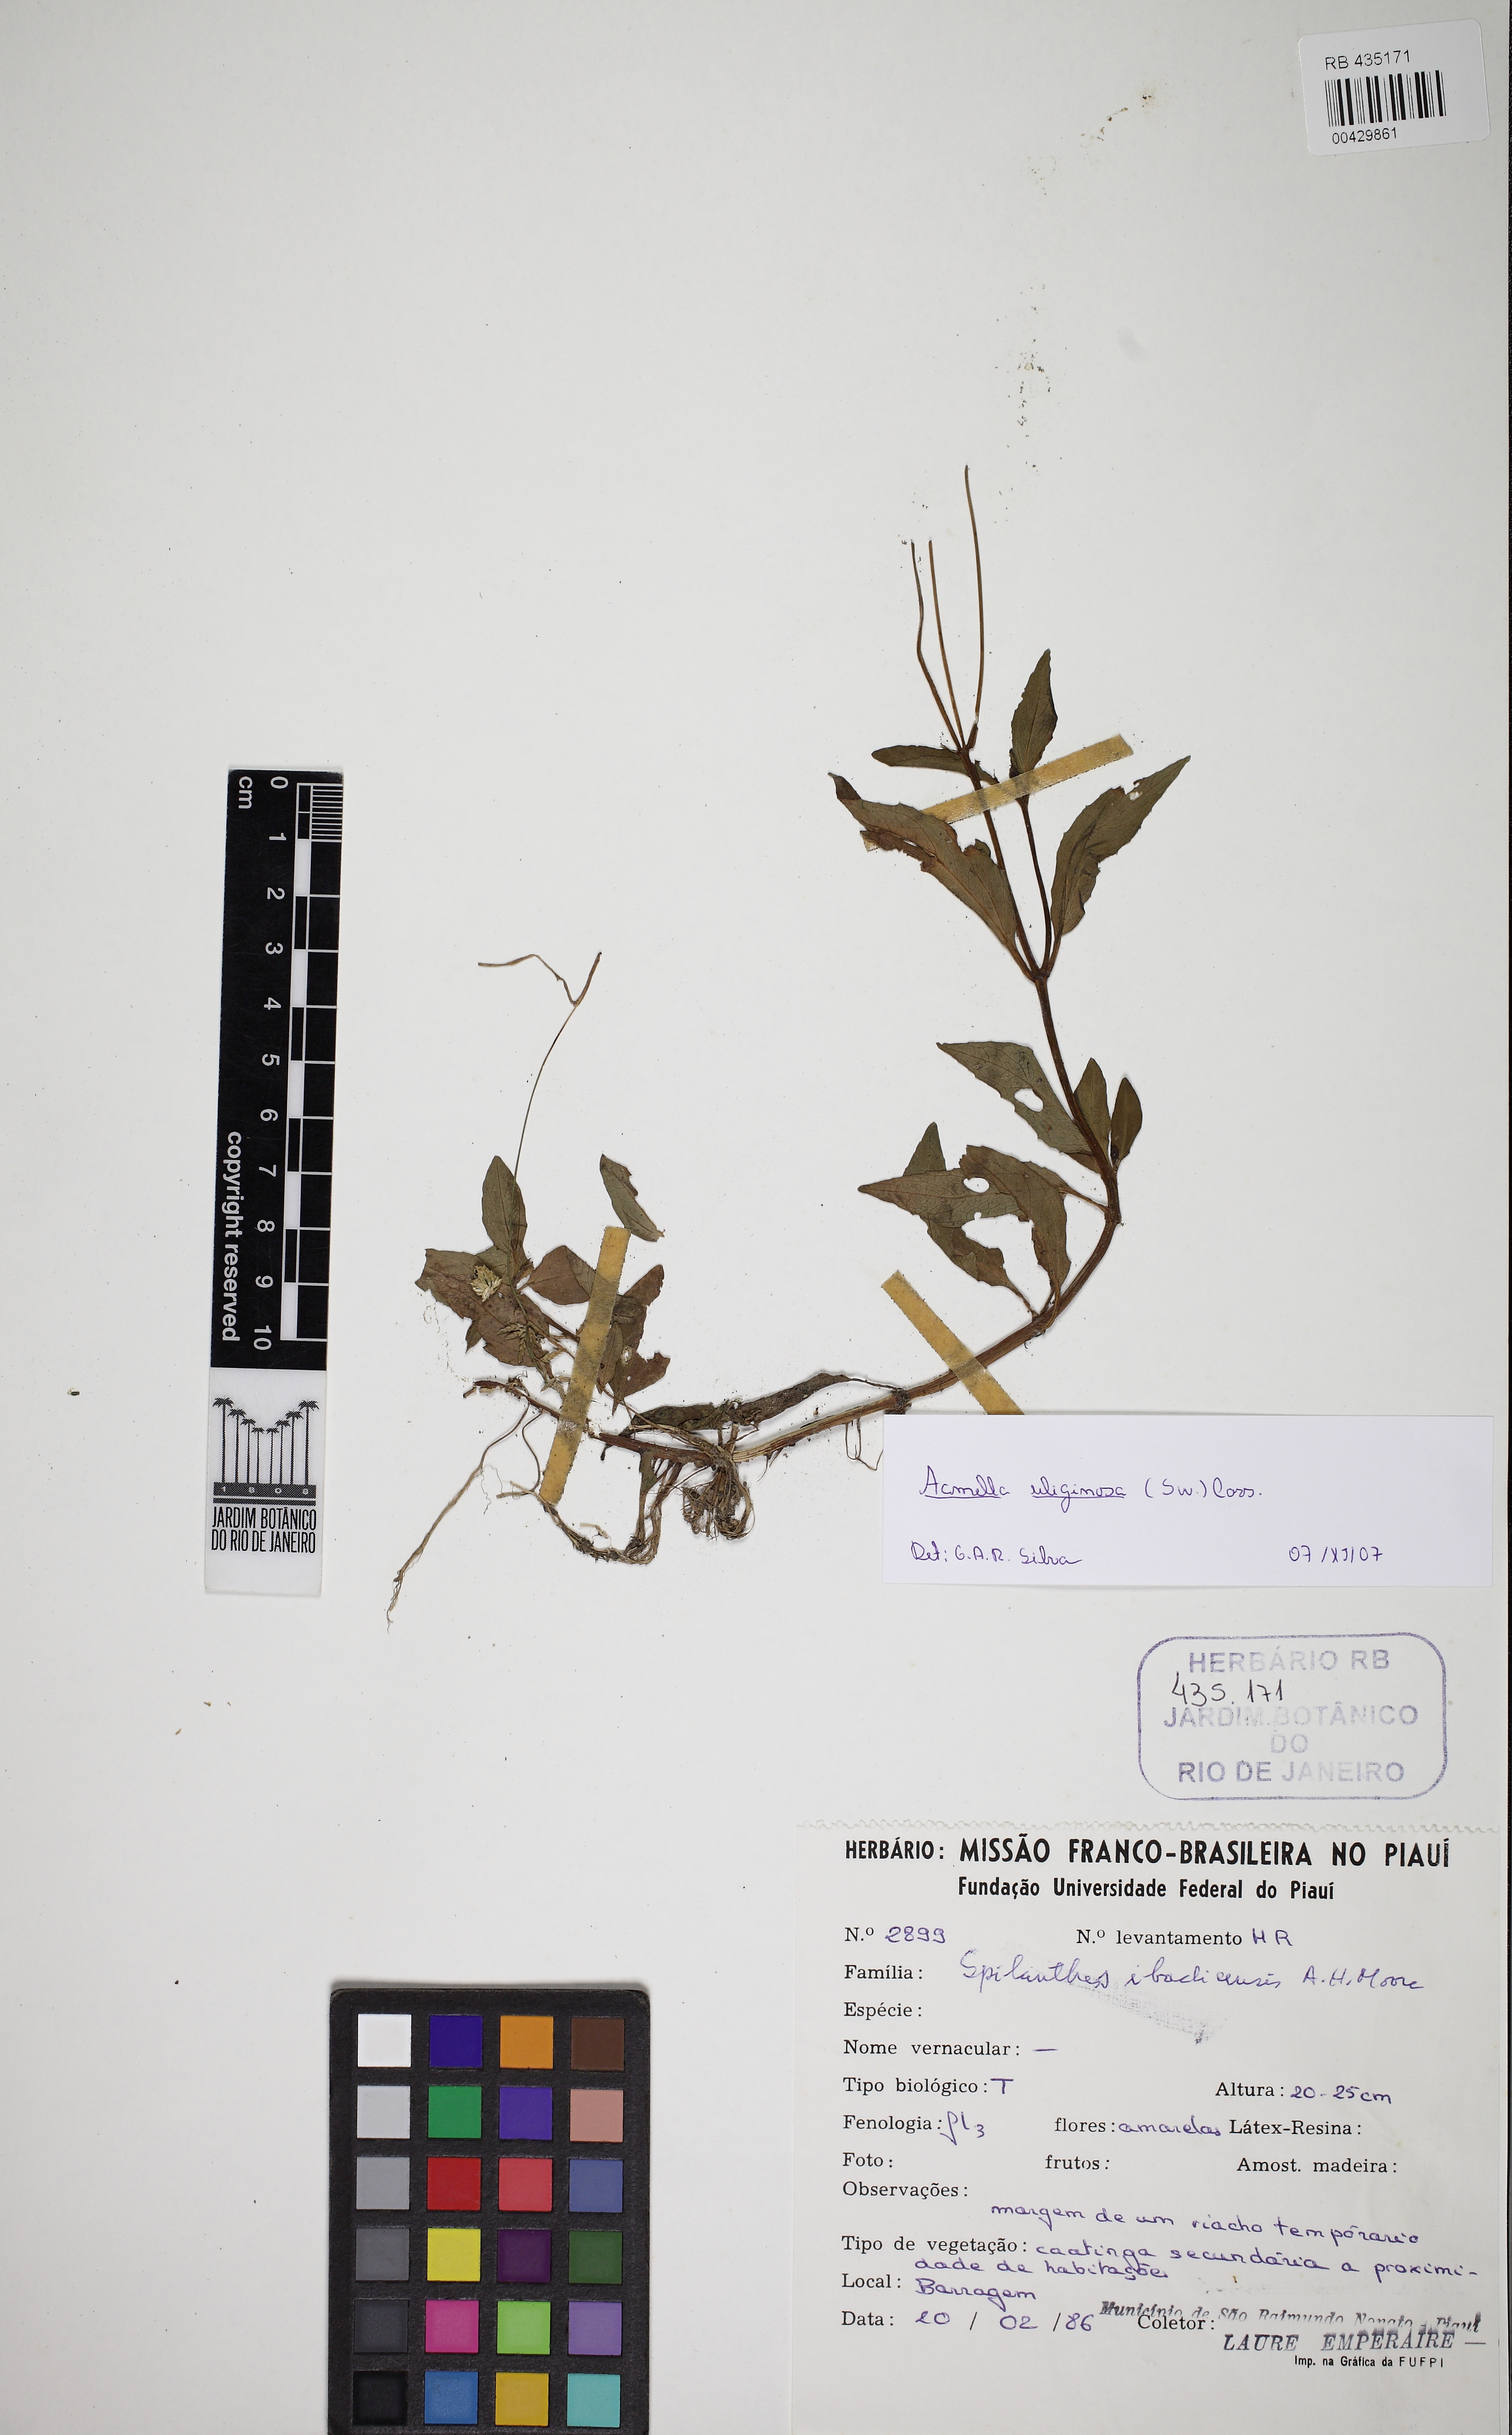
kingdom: Plantae
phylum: Tracheophyta
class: Magnoliopsida
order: Asterales
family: Asteraceae
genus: Acmella
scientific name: Acmella uliginosa
